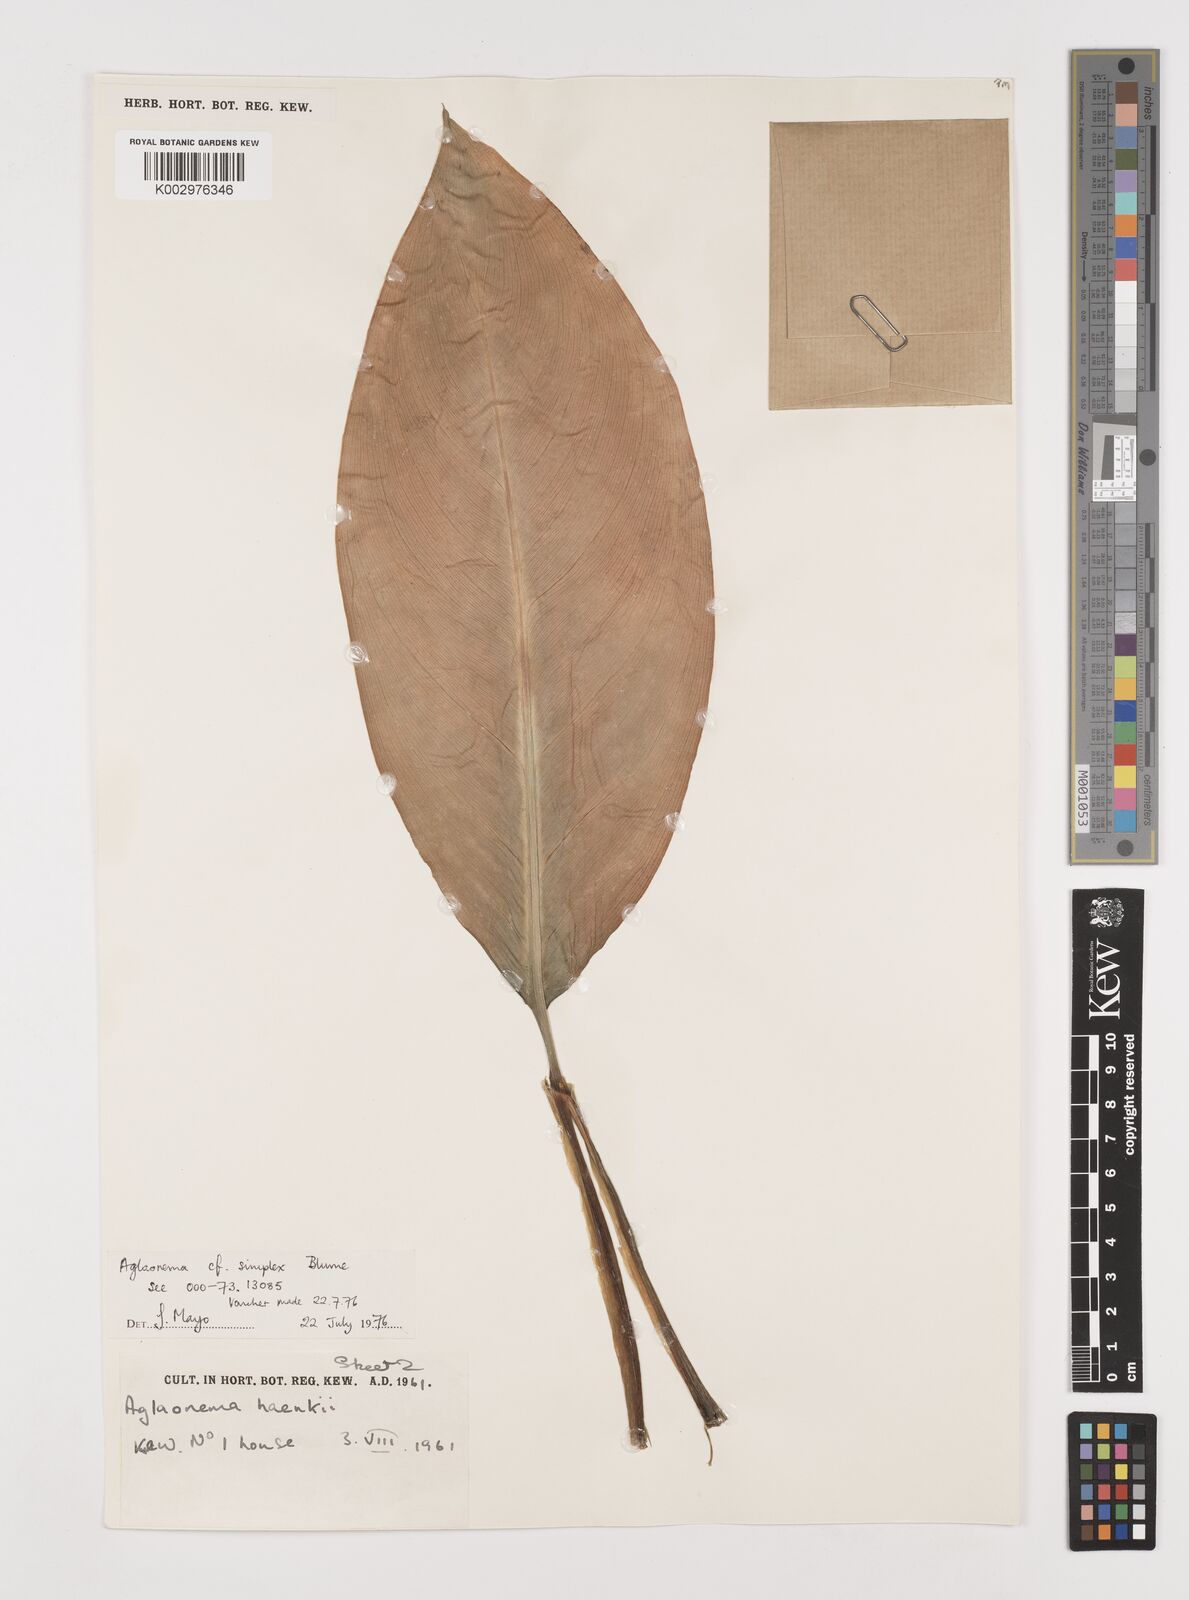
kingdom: Plantae
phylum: Tracheophyta
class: Liliopsida
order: Alismatales
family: Araceae
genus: Aglaonema
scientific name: Aglaonema simplex
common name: Malayan-sword
